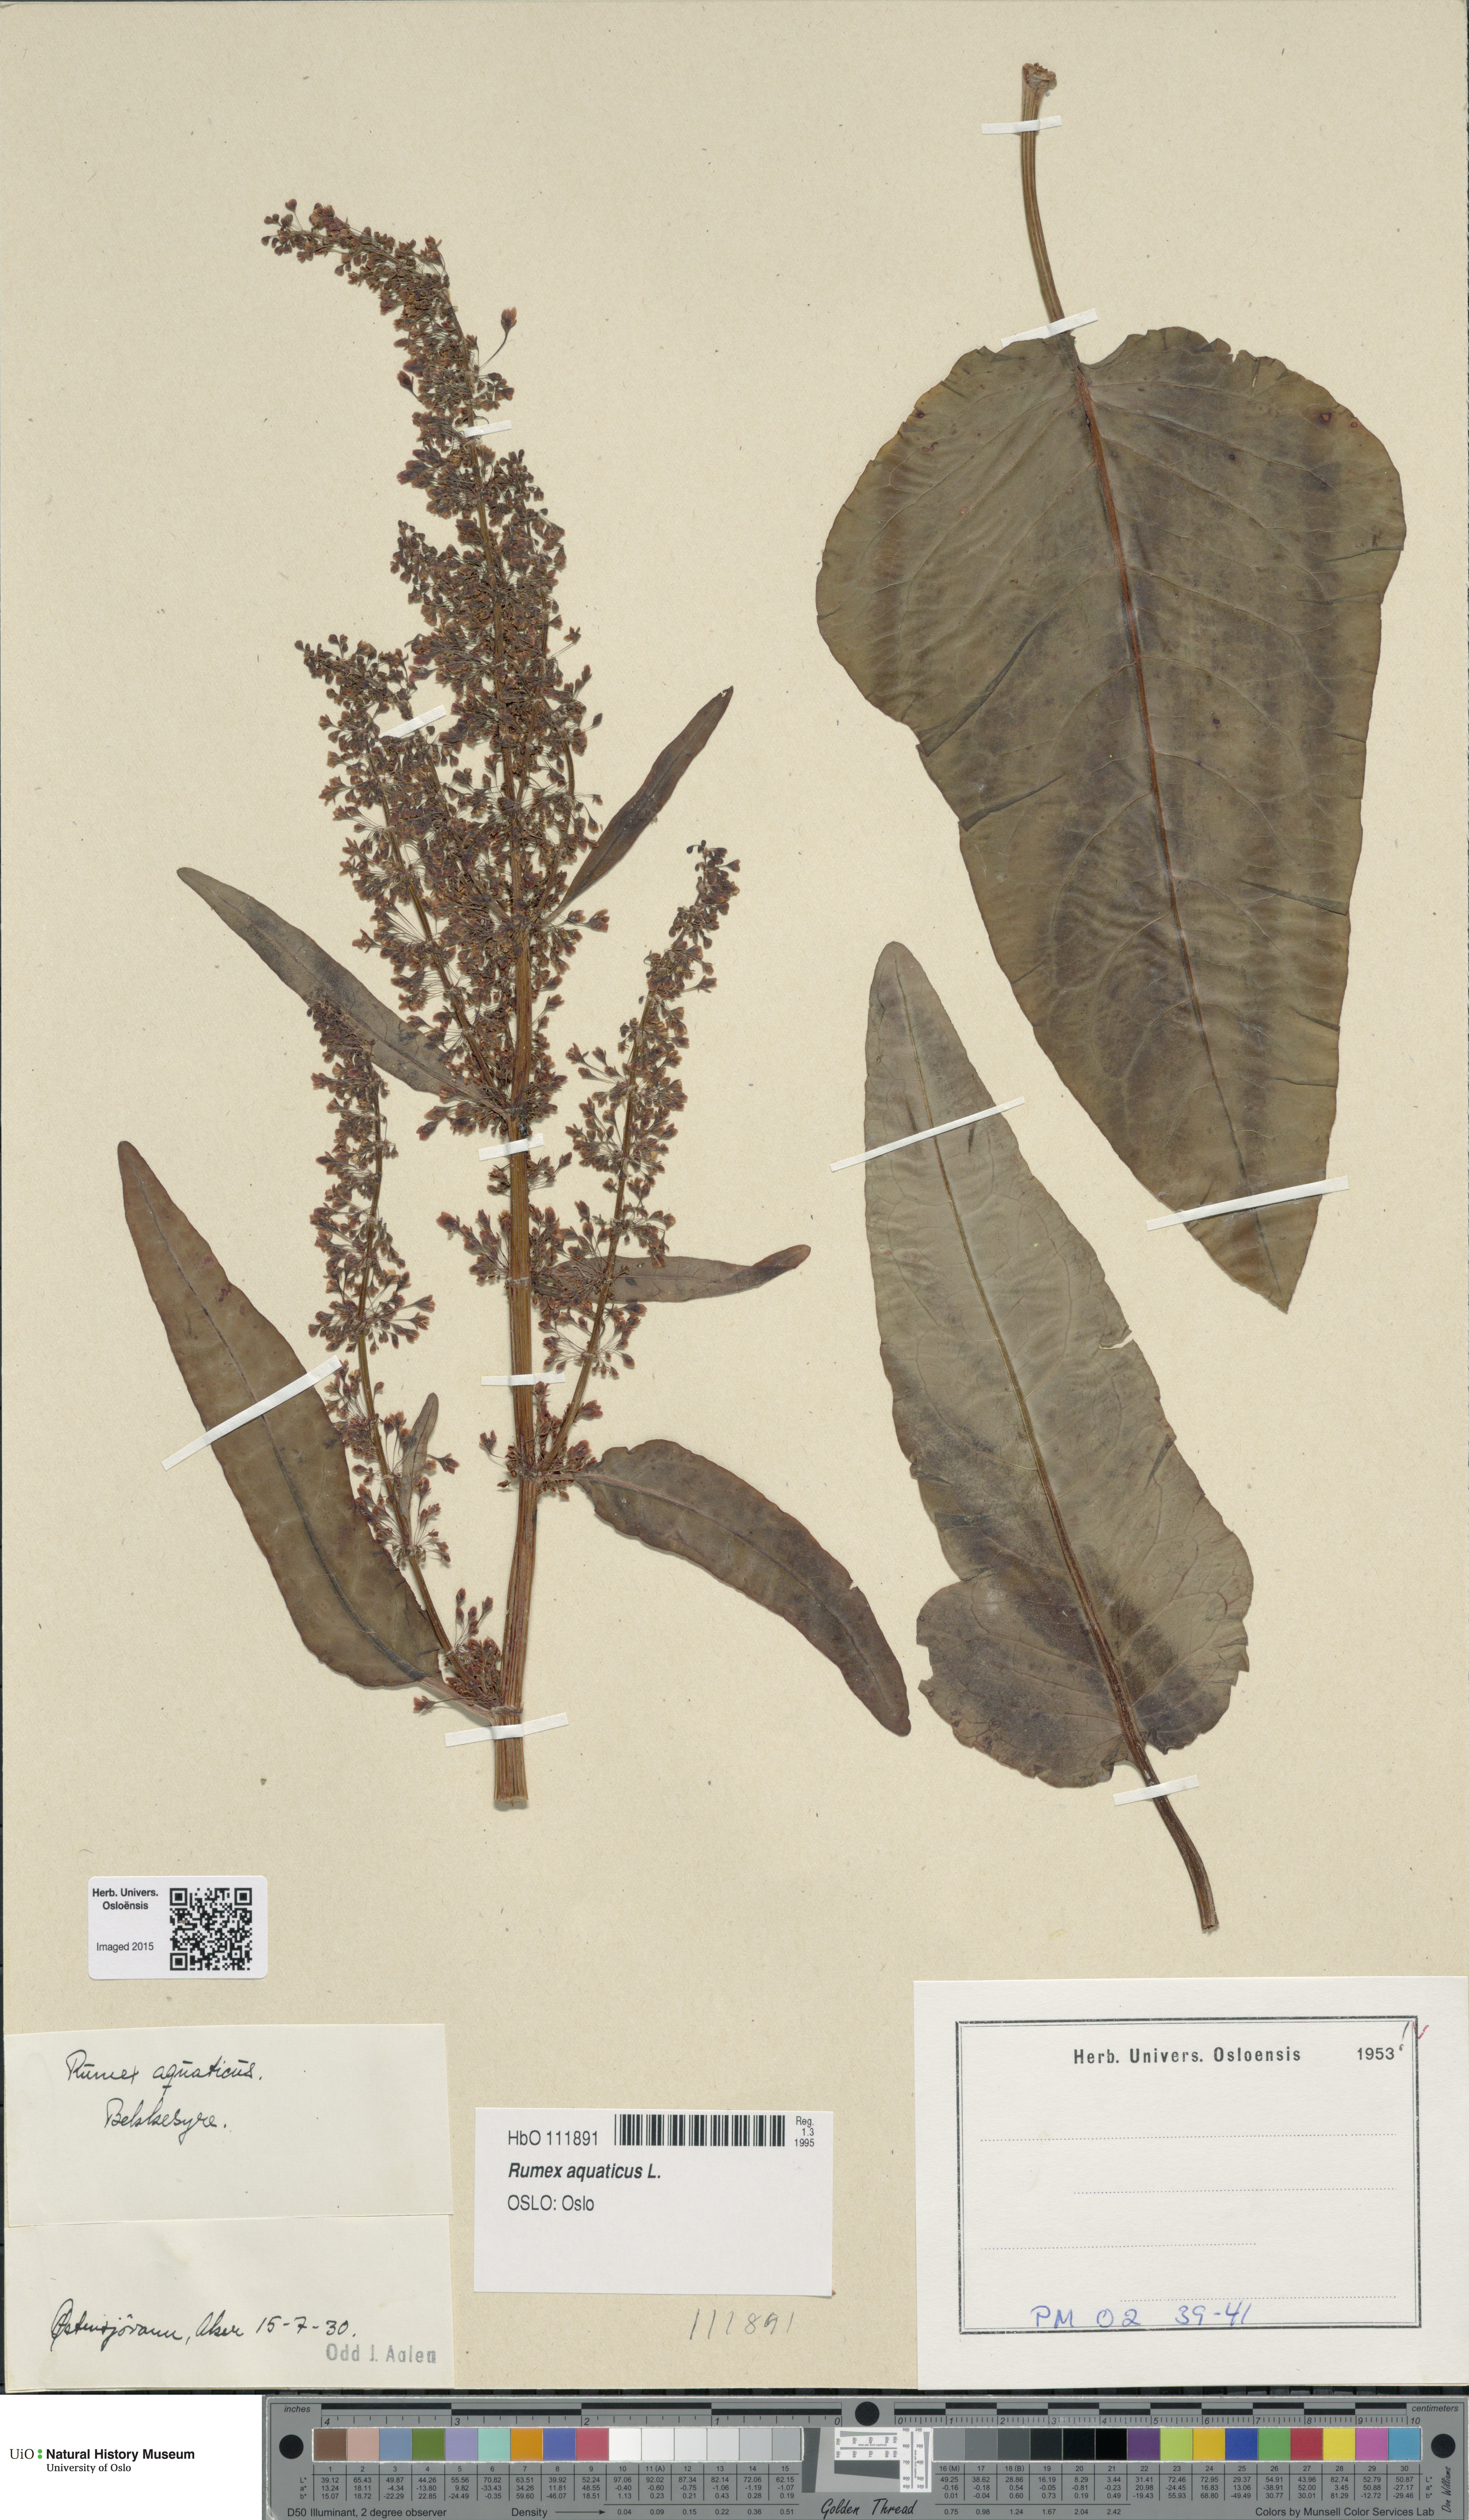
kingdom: Plantae
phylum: Tracheophyta
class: Magnoliopsida
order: Caryophyllales
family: Polygonaceae
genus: Rumex
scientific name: Rumex aquaticus
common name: Scottish dock
